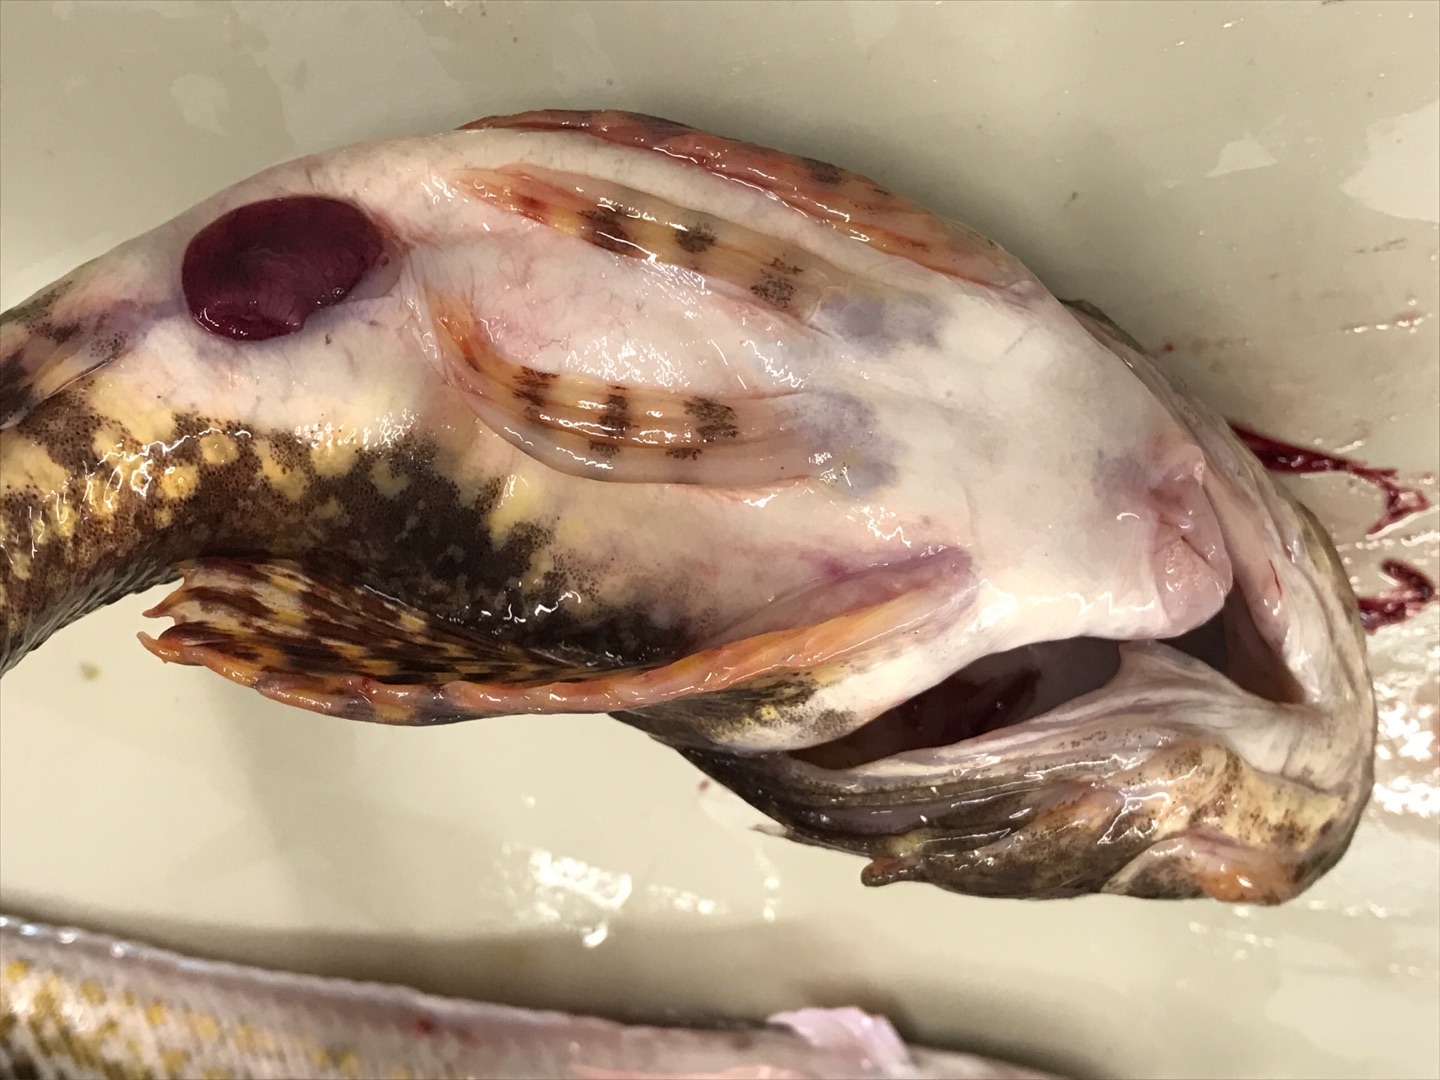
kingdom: Animalia
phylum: Chordata
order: Scorpaeniformes
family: Cottidae
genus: Myoxocephalus
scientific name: Myoxocephalus scorpius
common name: Almindelig ulk
